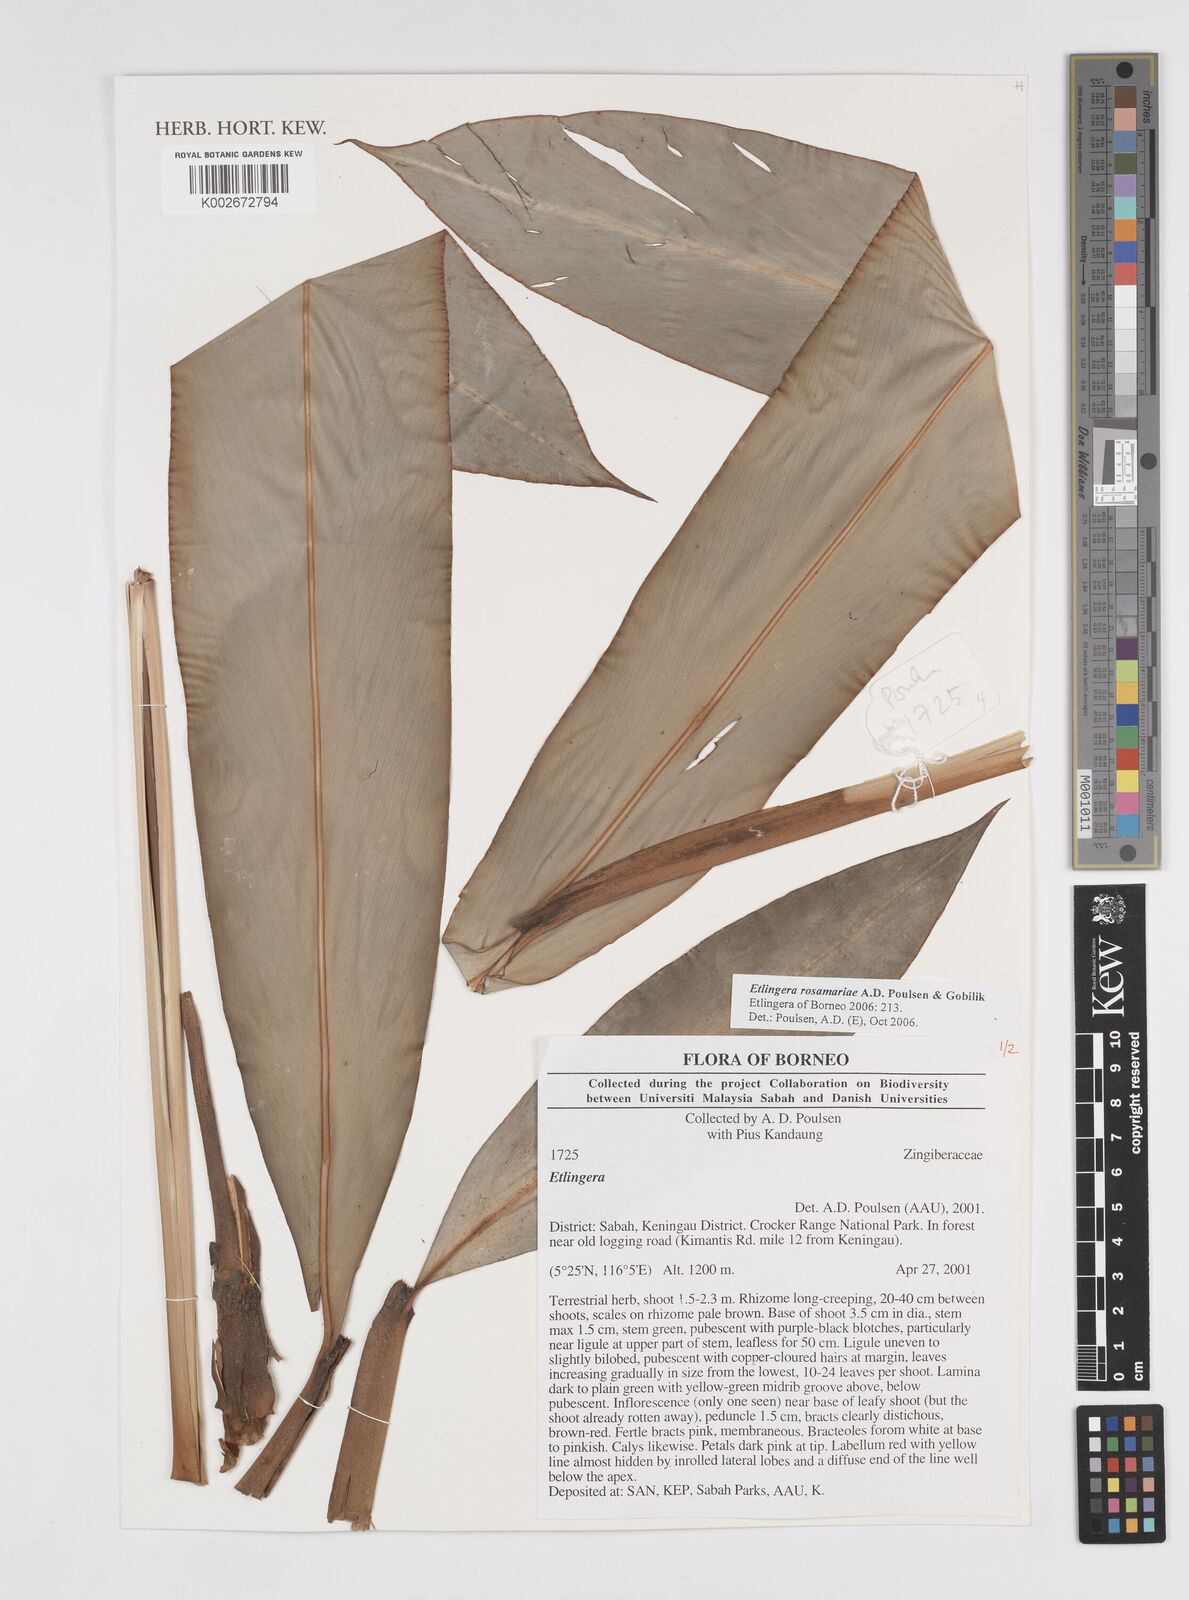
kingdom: Plantae
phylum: Tracheophyta
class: Liliopsida
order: Zingiberales
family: Zingiberaceae
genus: Etlingera
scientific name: Etlingera rosamariae
